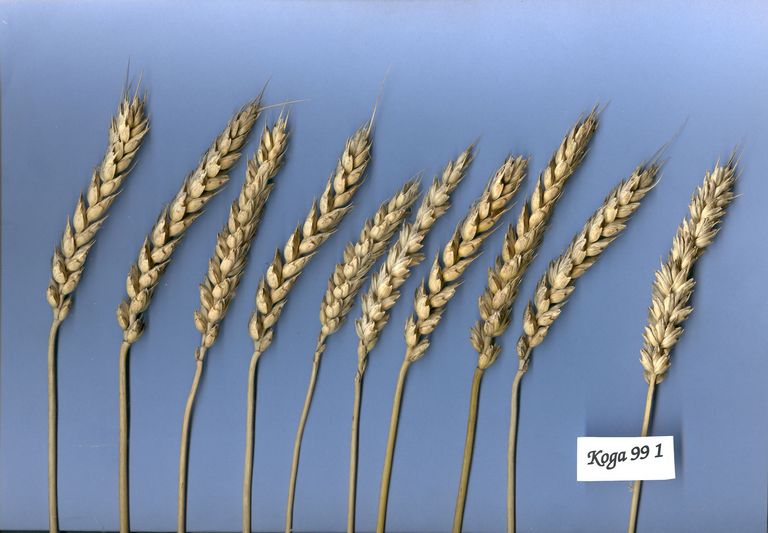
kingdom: Plantae
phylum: Tracheophyta
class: Liliopsida
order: Poales
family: Poaceae
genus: Triticum
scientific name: Triticum aestivum
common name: Common wheat
